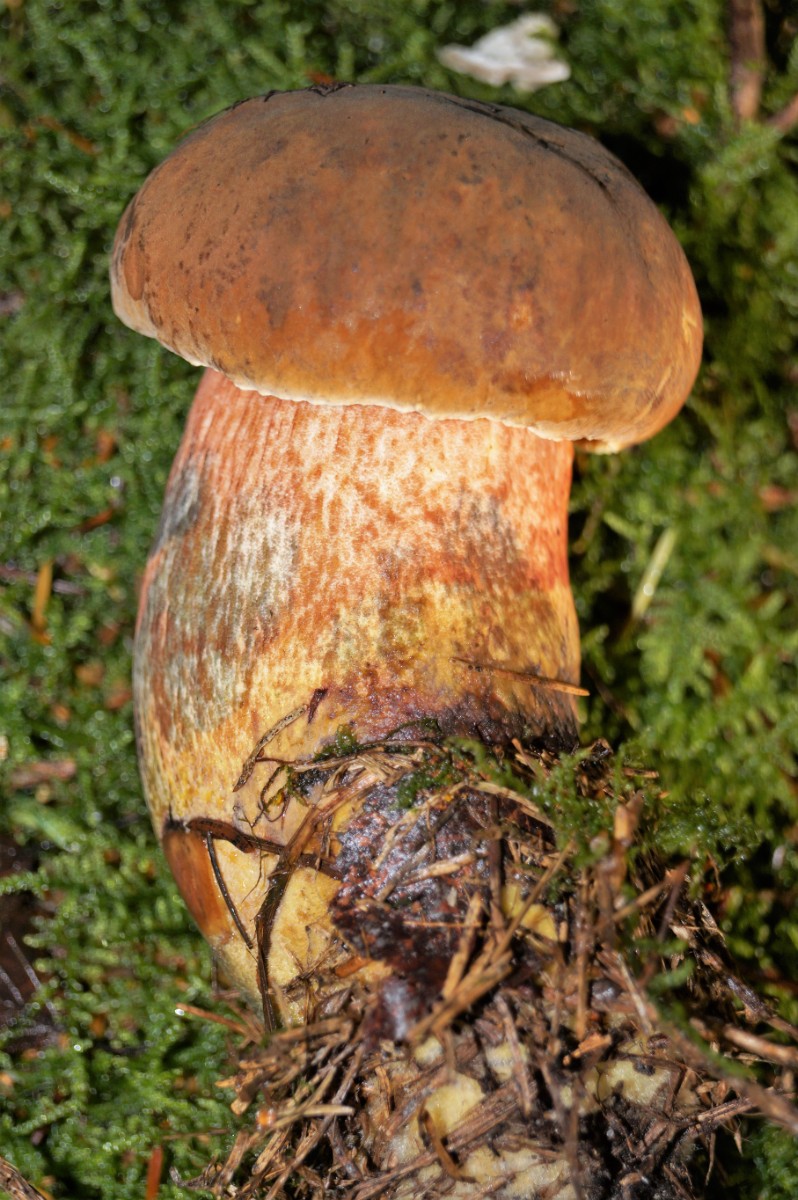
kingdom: Fungi
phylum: Basidiomycota
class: Agaricomycetes
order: Boletales
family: Boletaceae
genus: Neoboletus
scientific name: Neoboletus erythropus
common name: punktstokket indigorørhat
